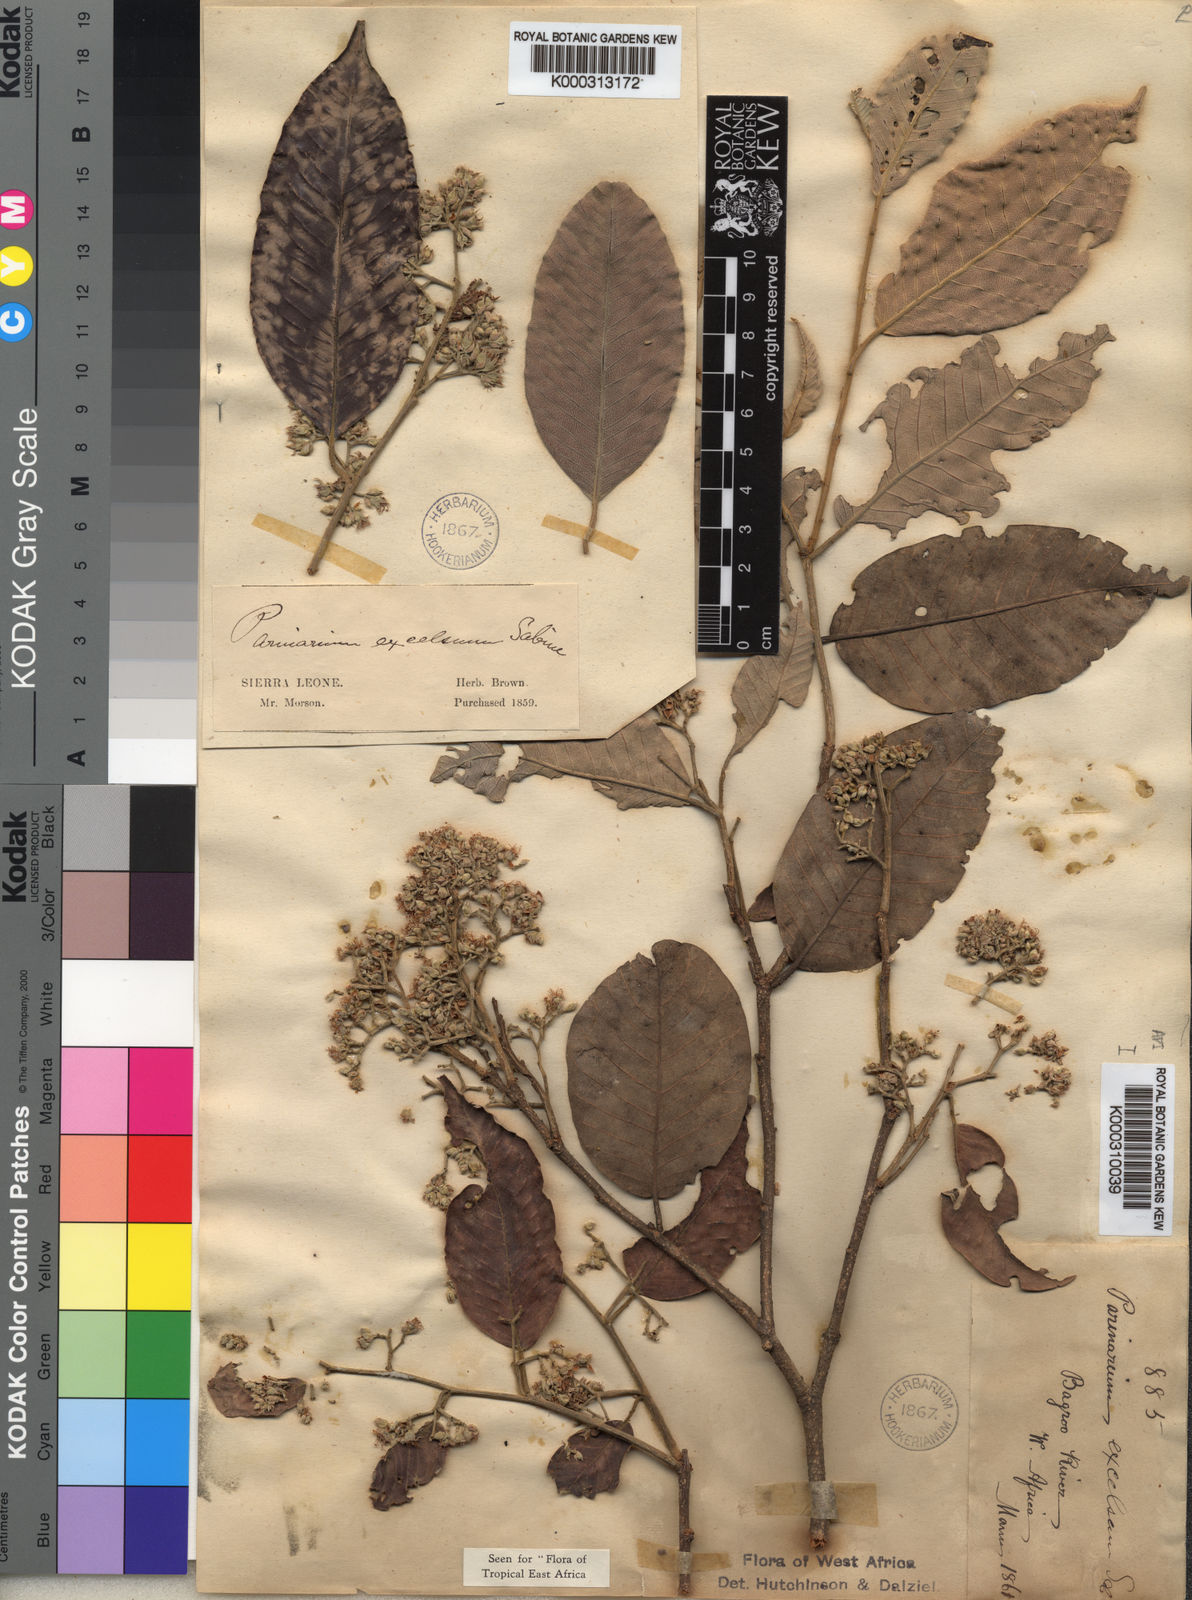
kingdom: Plantae
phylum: Tracheophyta
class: Magnoliopsida
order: Malpighiales
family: Chrysobalanaceae
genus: Parinari
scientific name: Parinari excelsa
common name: Guinea-plum
